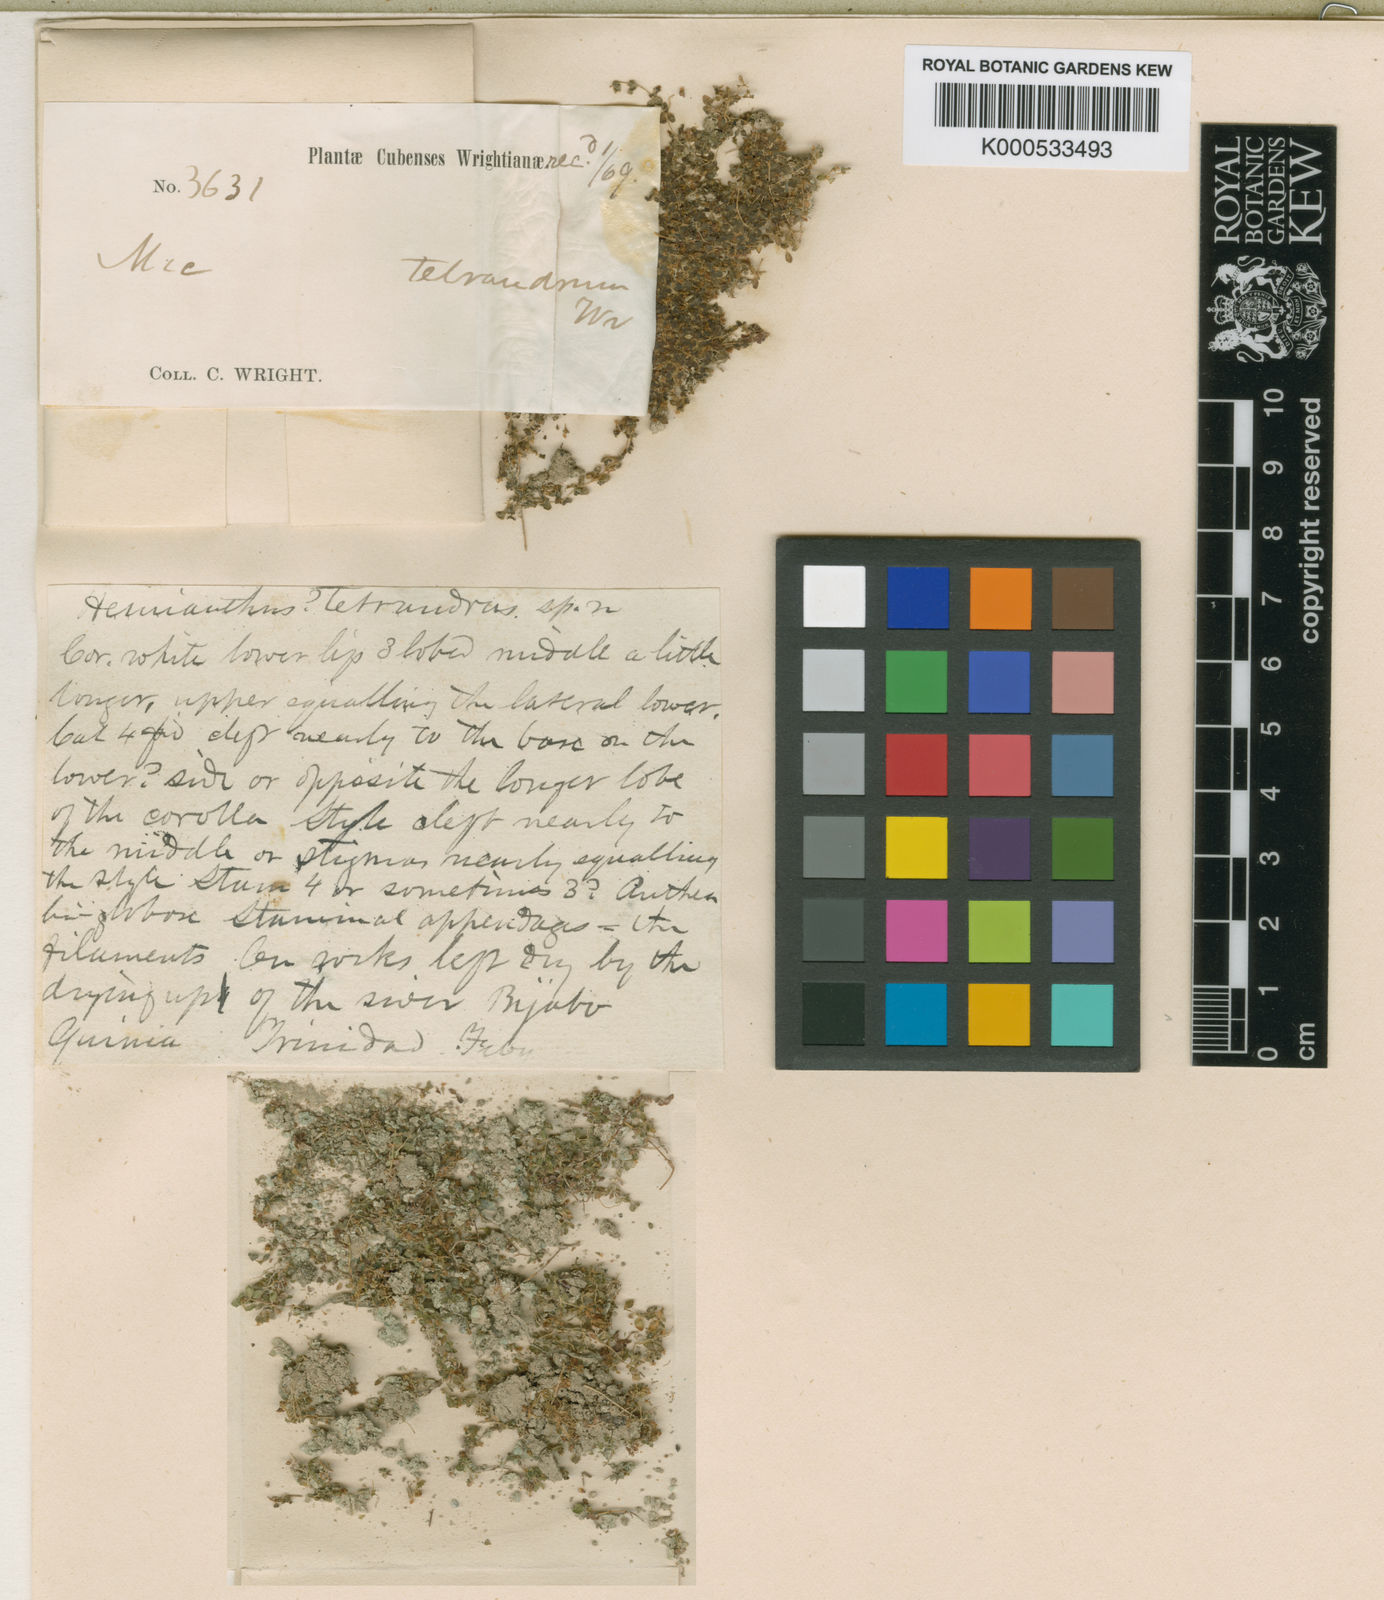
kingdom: Plantae
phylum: Tracheophyta
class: Magnoliopsida
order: Lamiales
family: Linderniaceae
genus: Micranthemum
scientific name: Micranthemum tetrandrum
